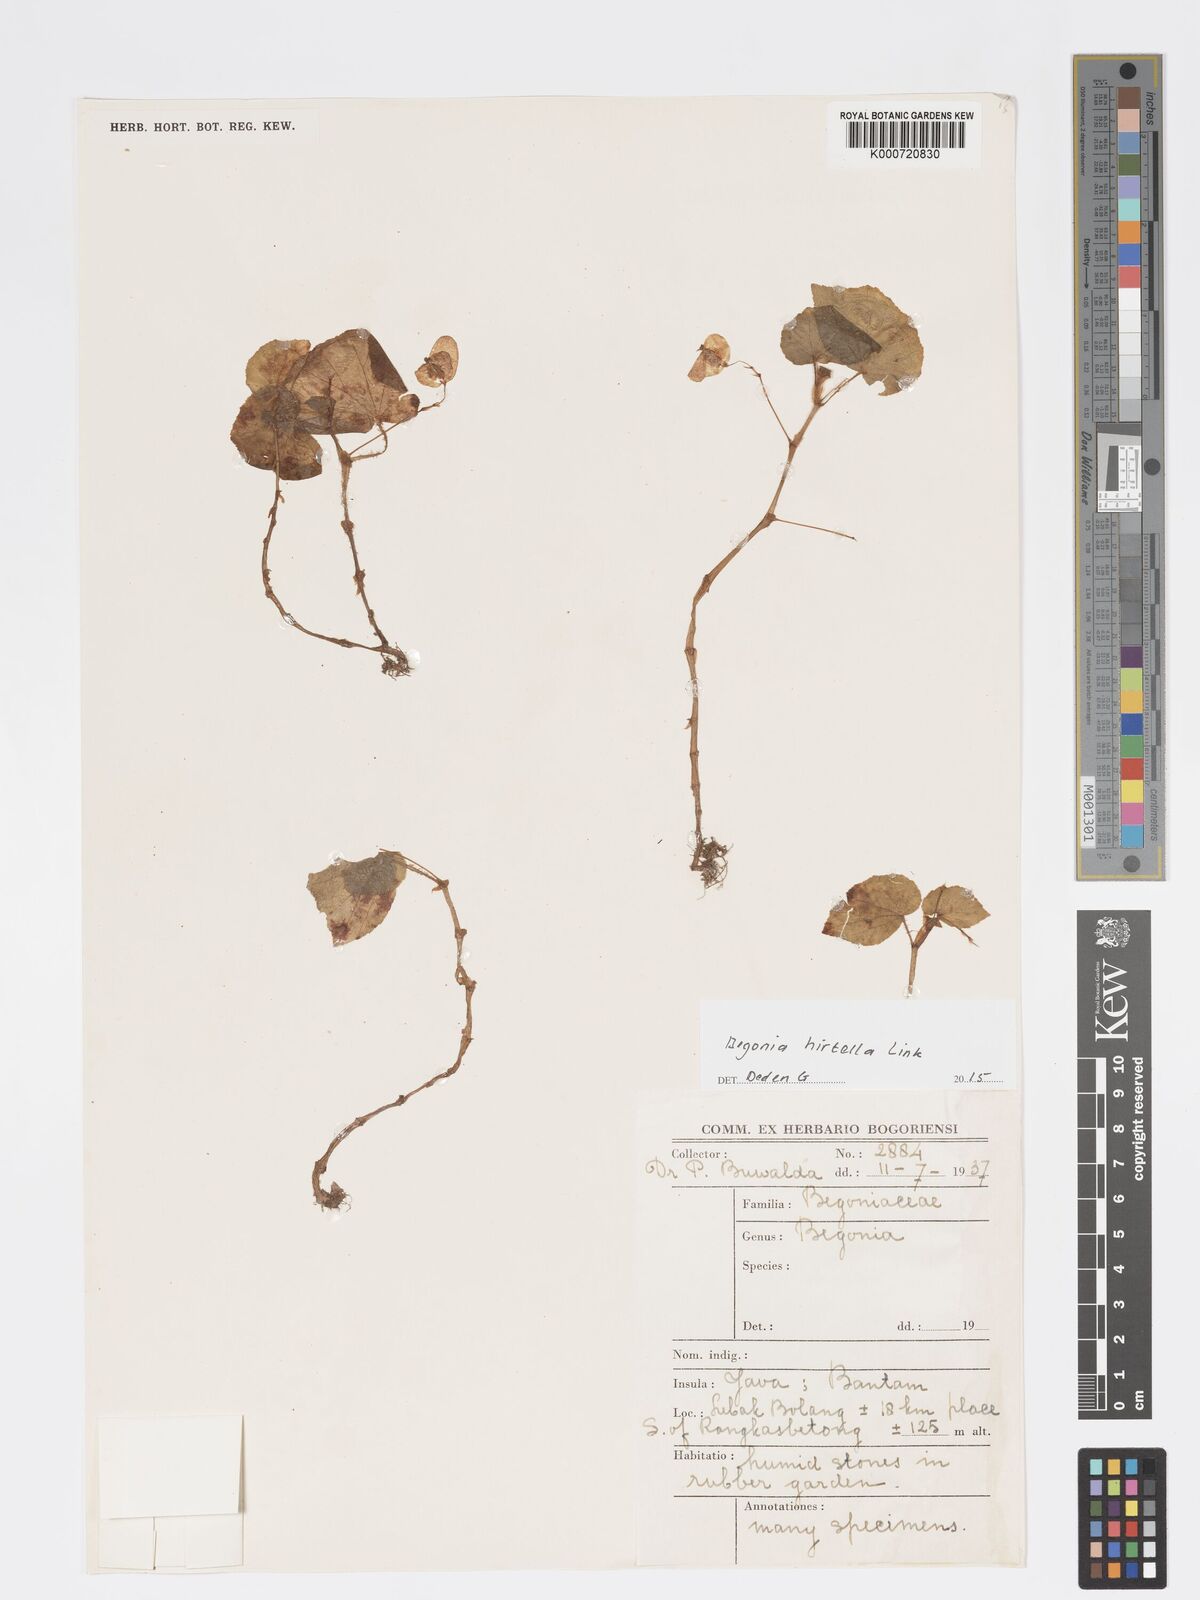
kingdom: Plantae
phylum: Tracheophyta
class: Magnoliopsida
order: Cucurbitales
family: Begoniaceae
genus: Begonia
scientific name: Begonia hirtella
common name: Brazilian begonia
